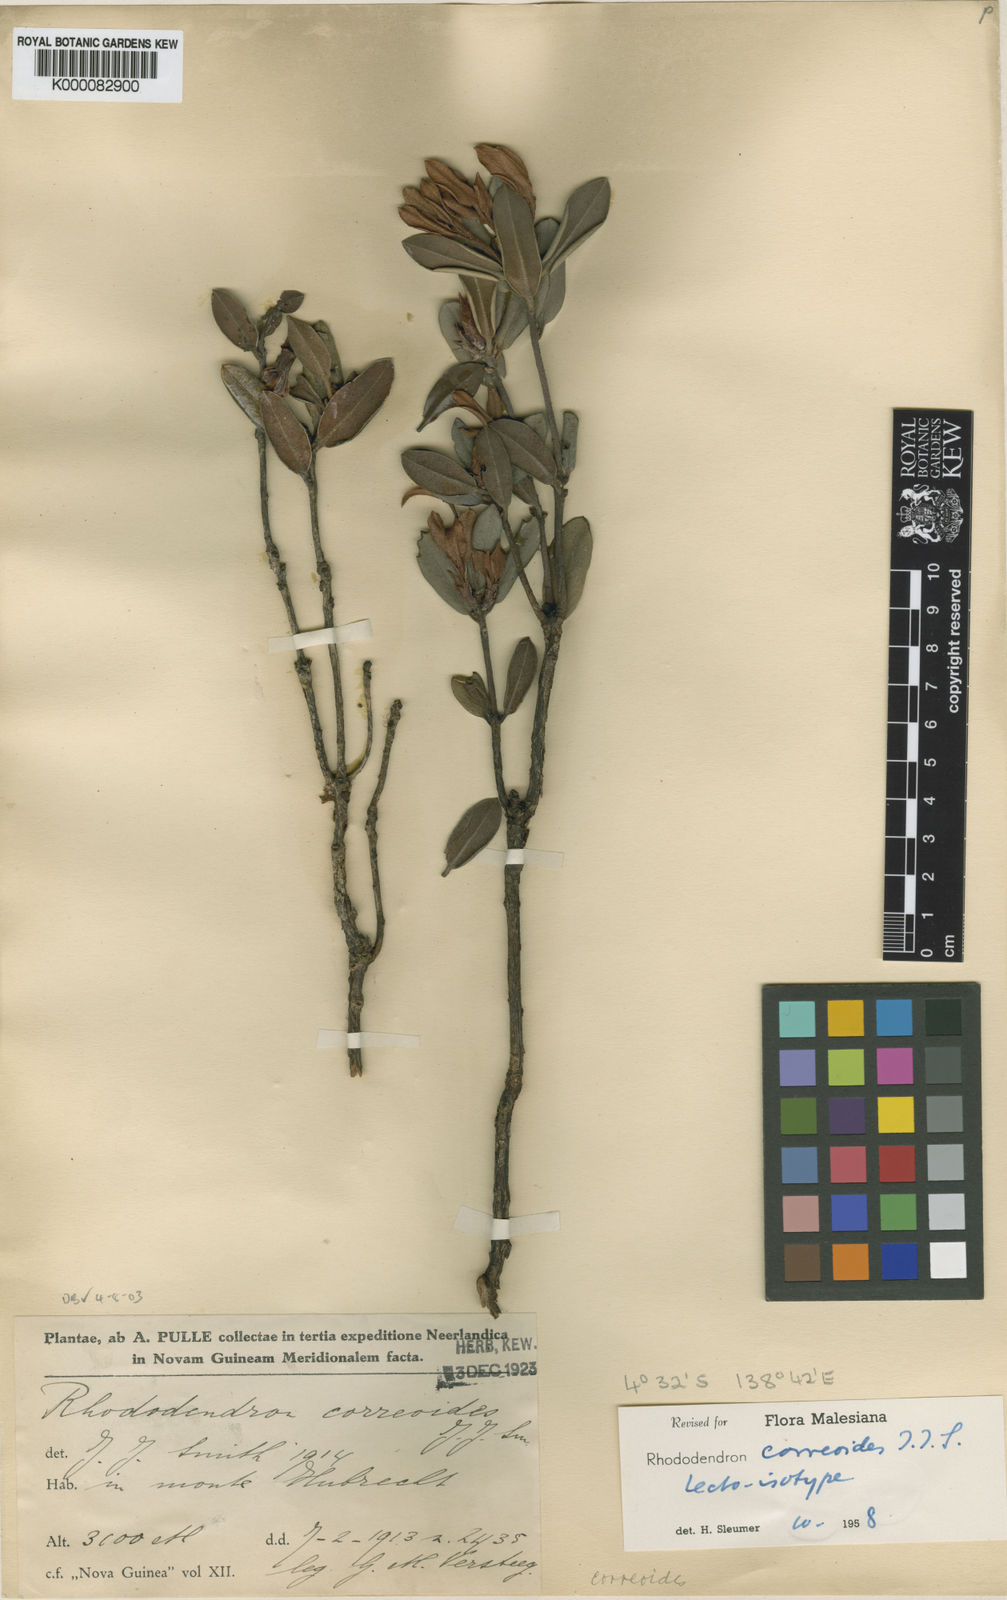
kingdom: Plantae
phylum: Tracheophyta
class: Magnoliopsida
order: Ericales
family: Ericaceae
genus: Rhododendron
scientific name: Rhododendron correoides
